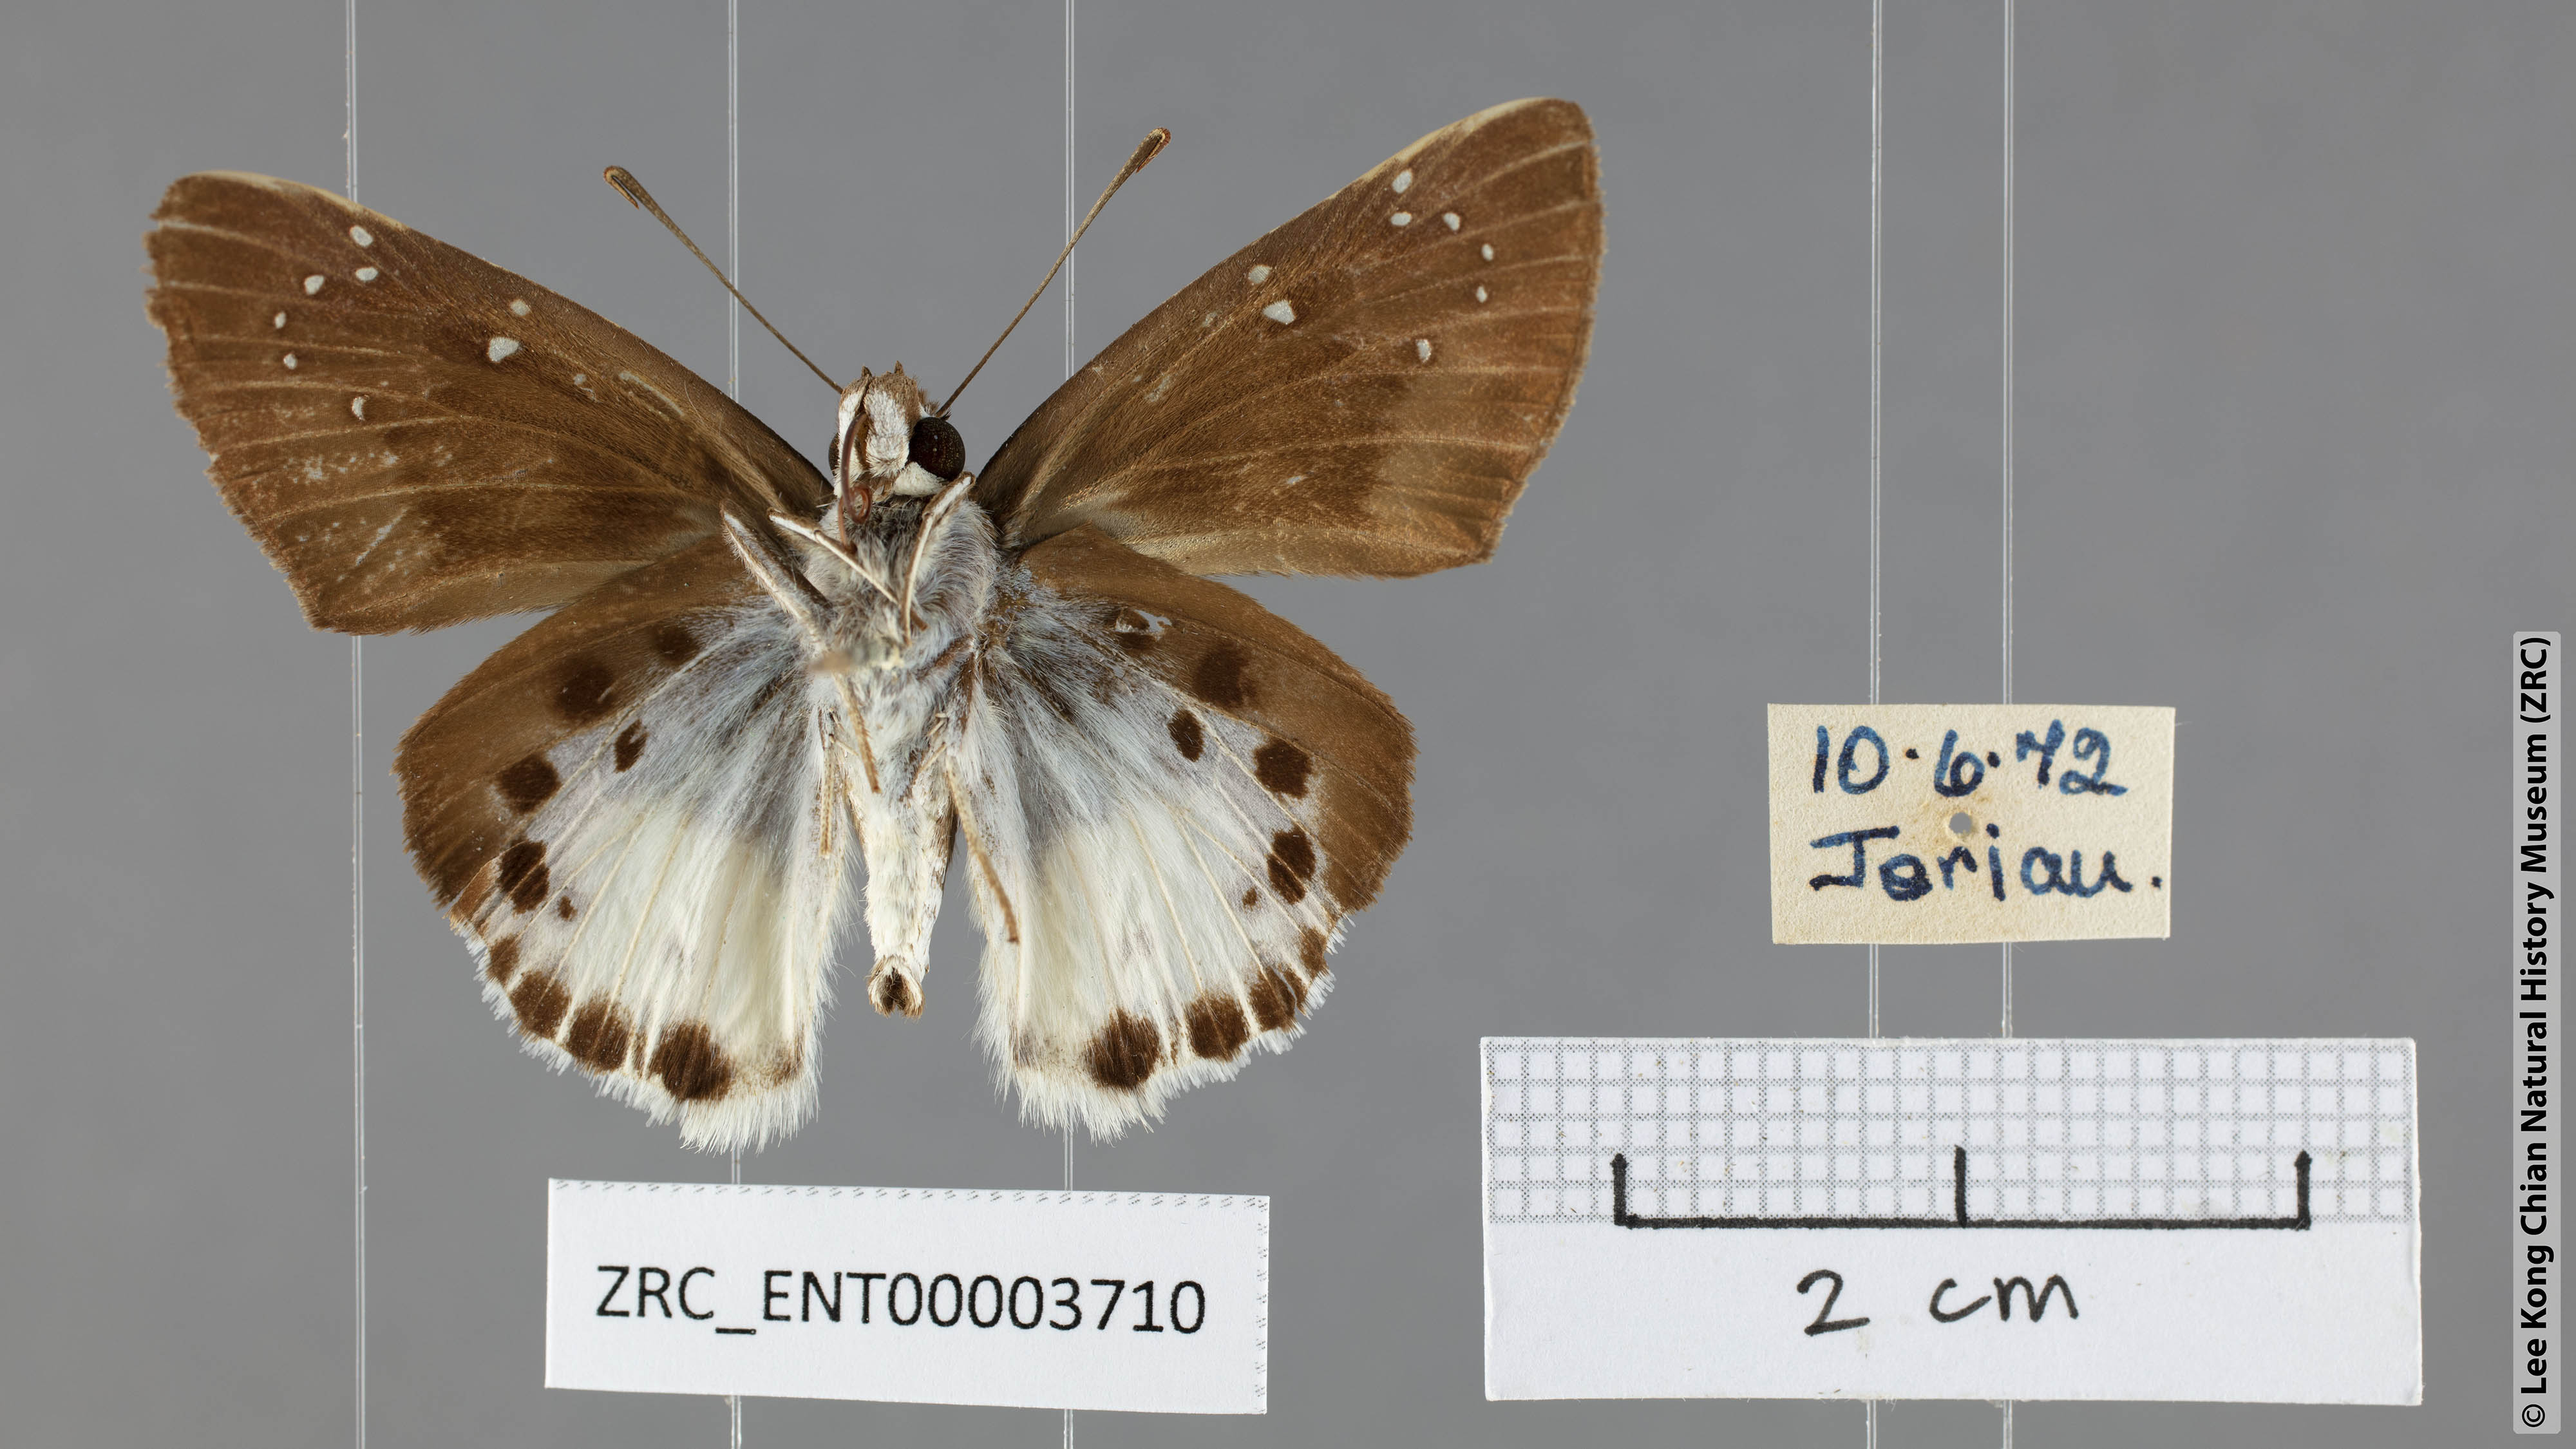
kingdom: Animalia
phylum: Arthropoda
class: Insecta
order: Lepidoptera
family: Hesperiidae
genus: Tagiades
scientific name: Tagiades menaka
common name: Dark-edged snow flat
